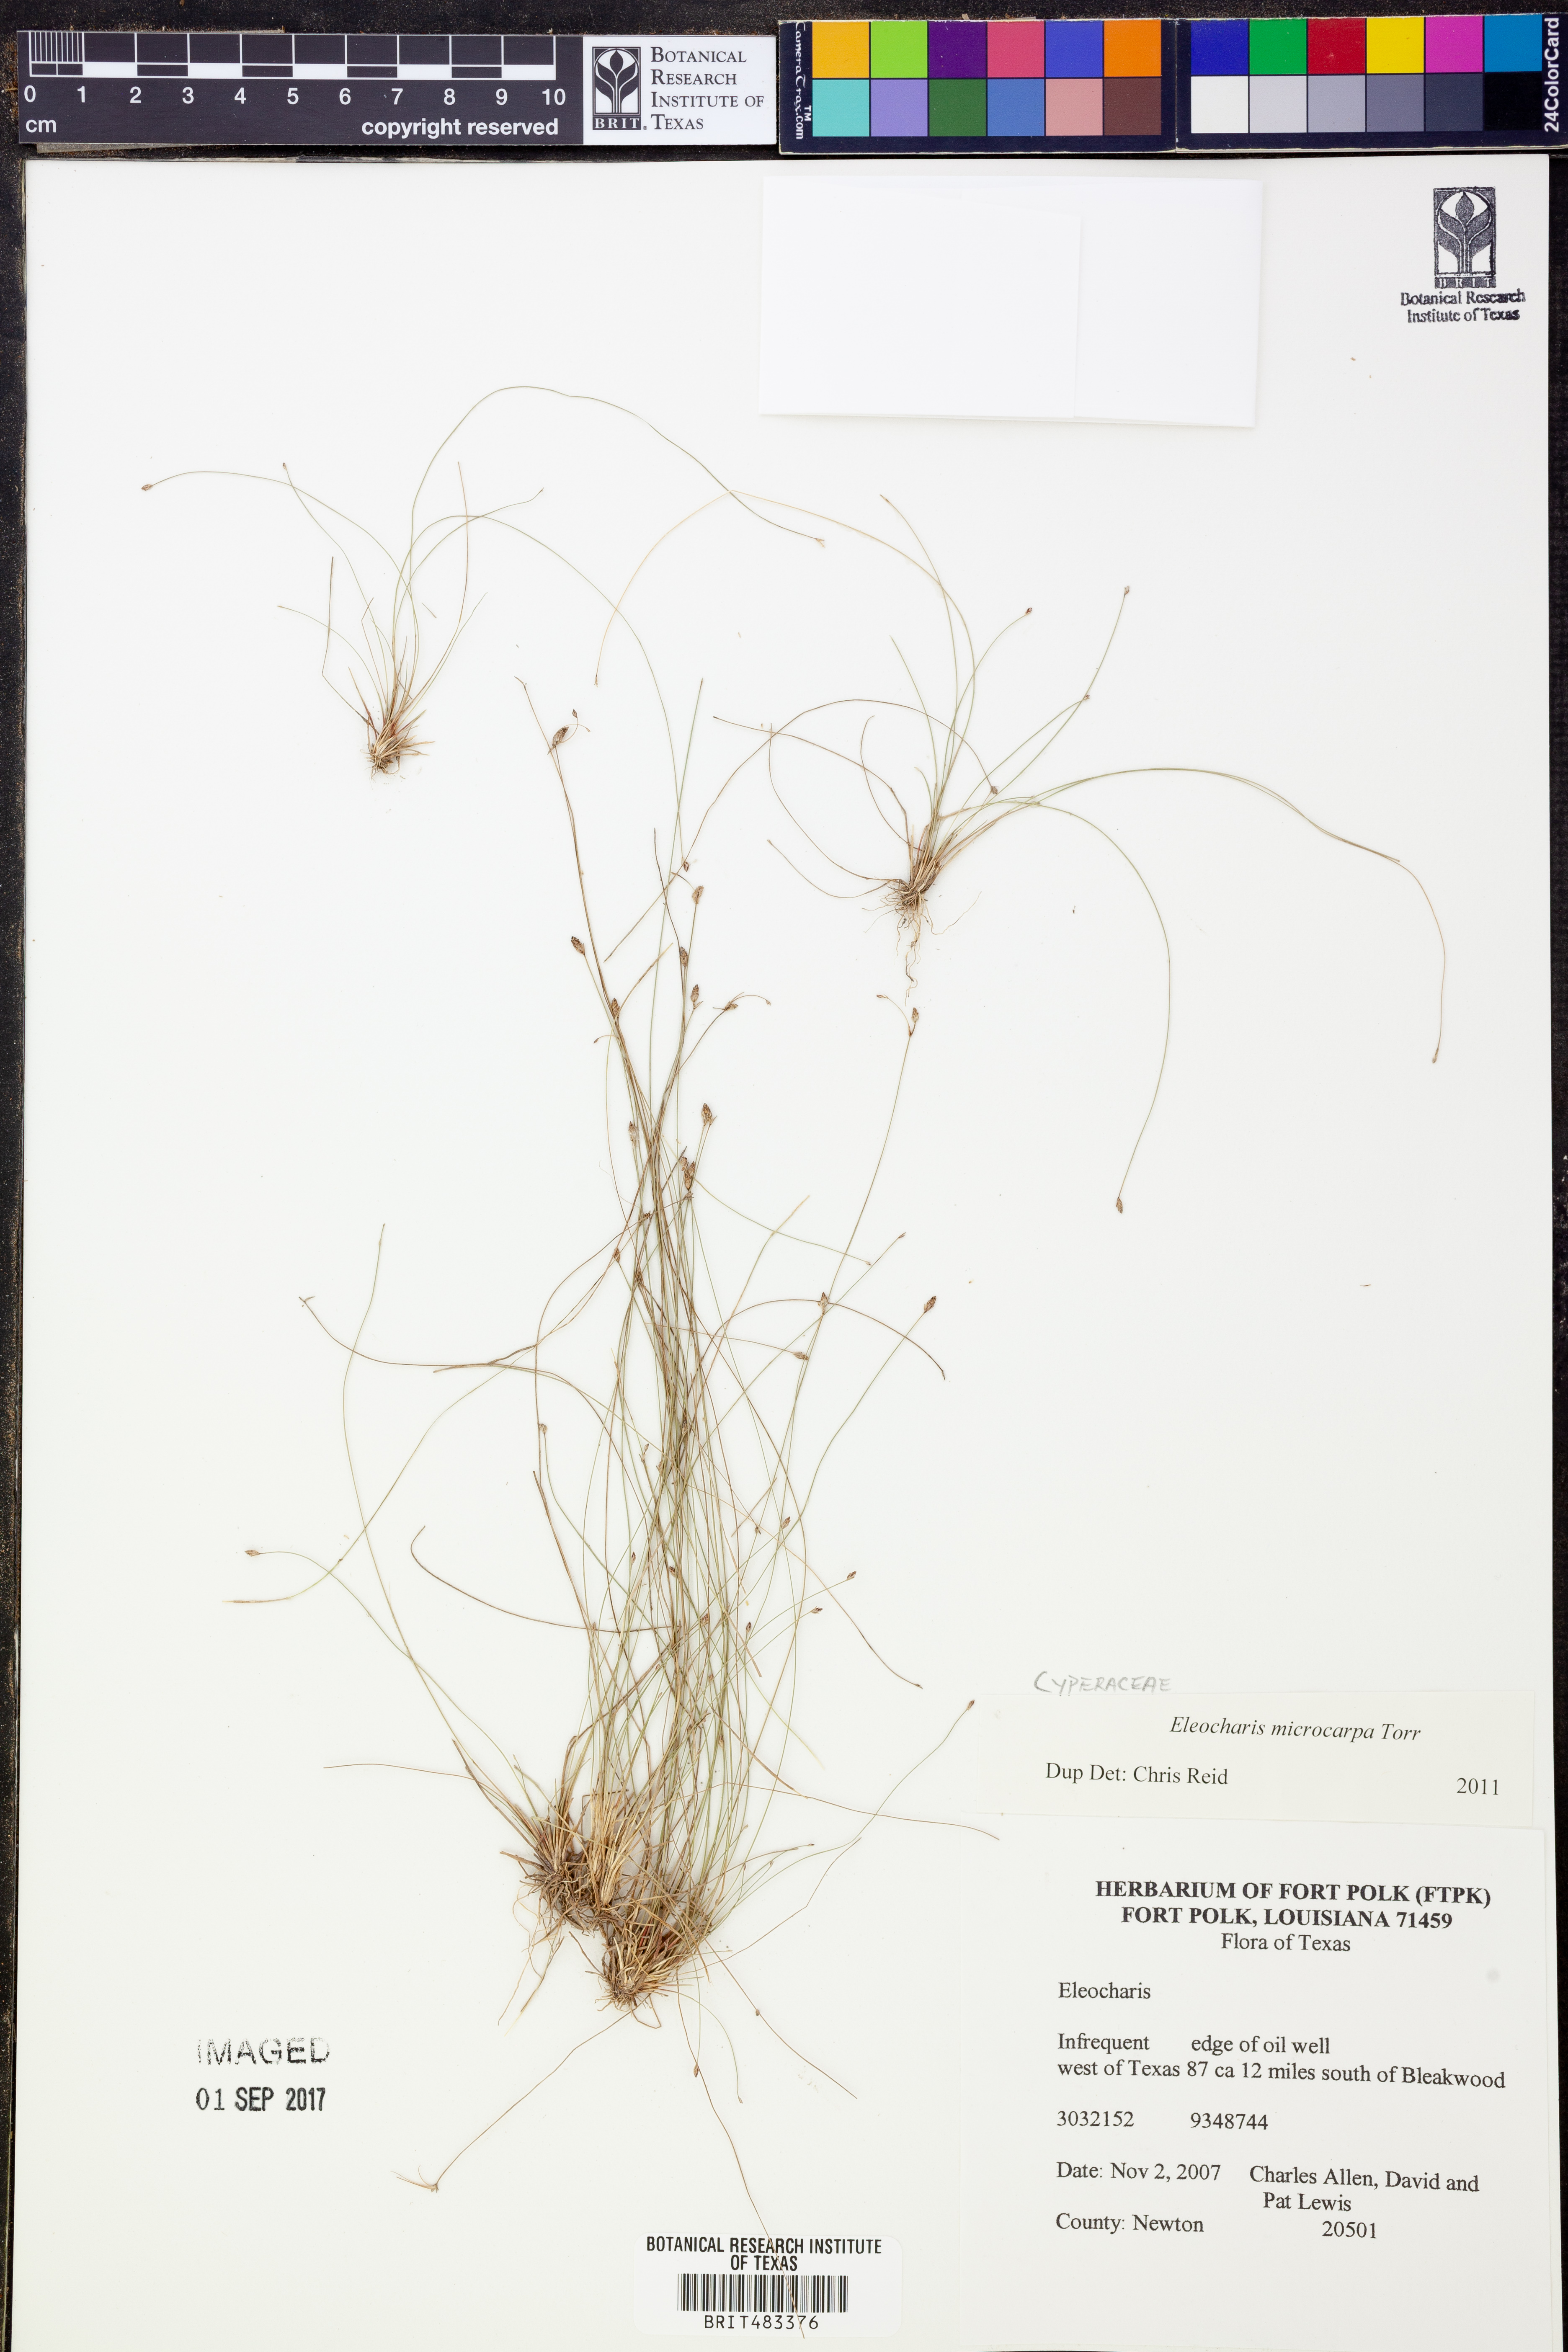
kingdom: Plantae
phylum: Tracheophyta
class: Liliopsida
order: Poales
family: Cyperaceae
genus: Eleocharis
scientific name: Eleocharis microcarpa
